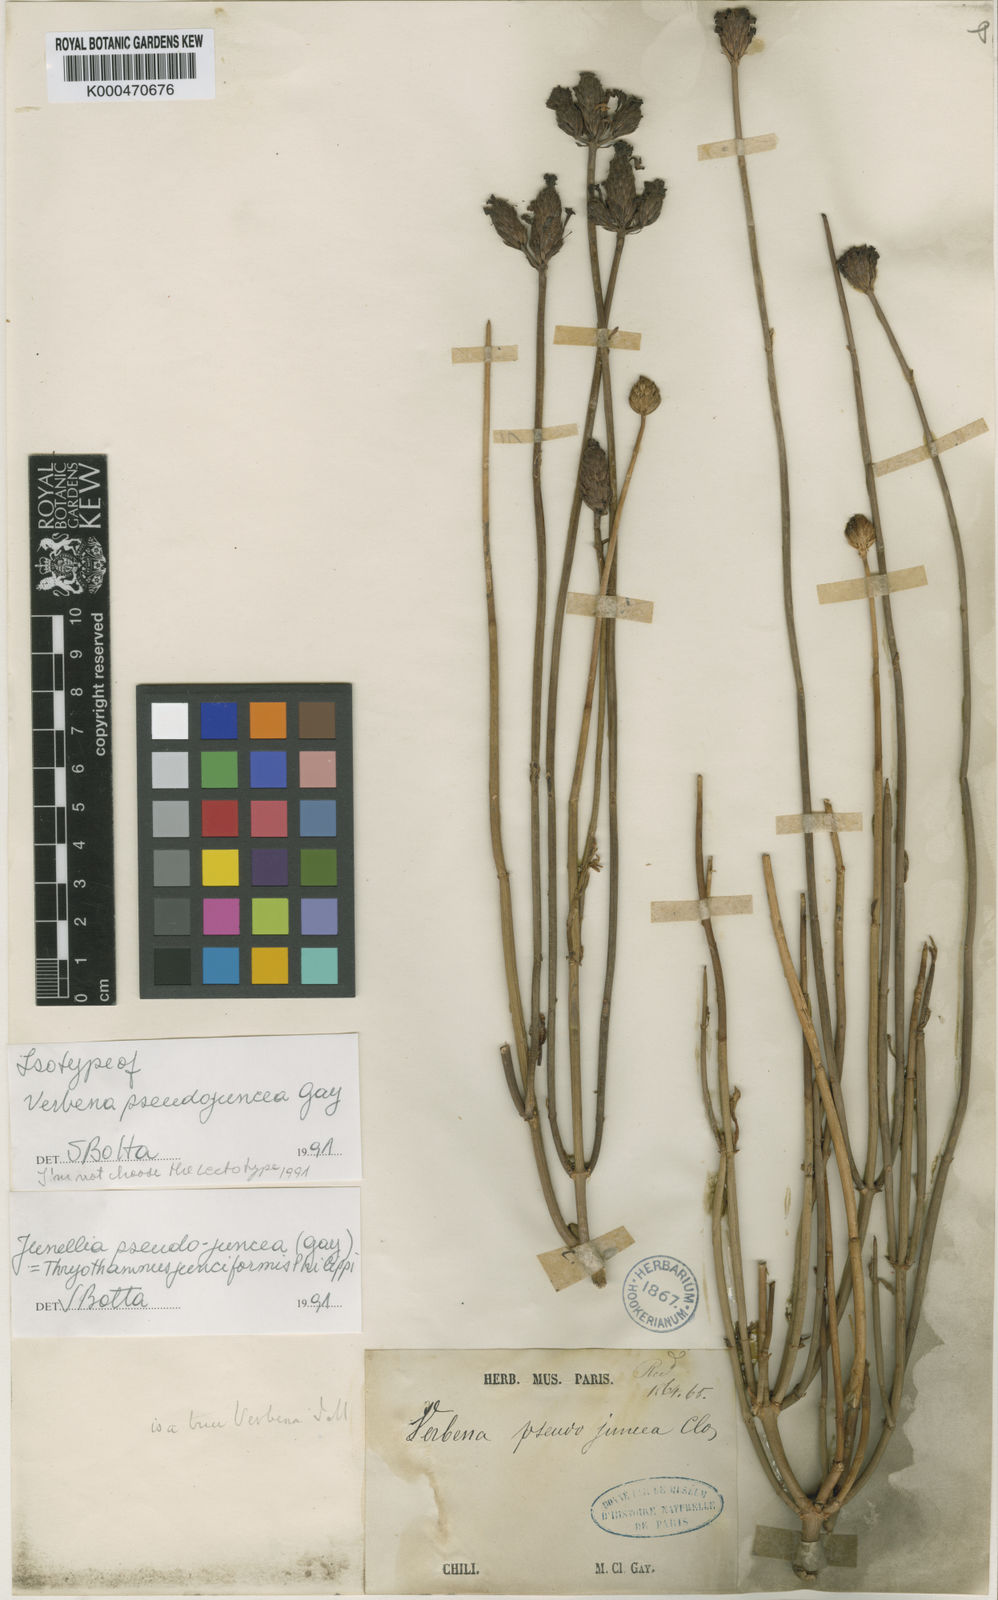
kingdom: Plantae
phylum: Tracheophyta
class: Magnoliopsida
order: Lamiales
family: Verbenaceae
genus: Junellia
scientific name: Junellia pseudojuncea
